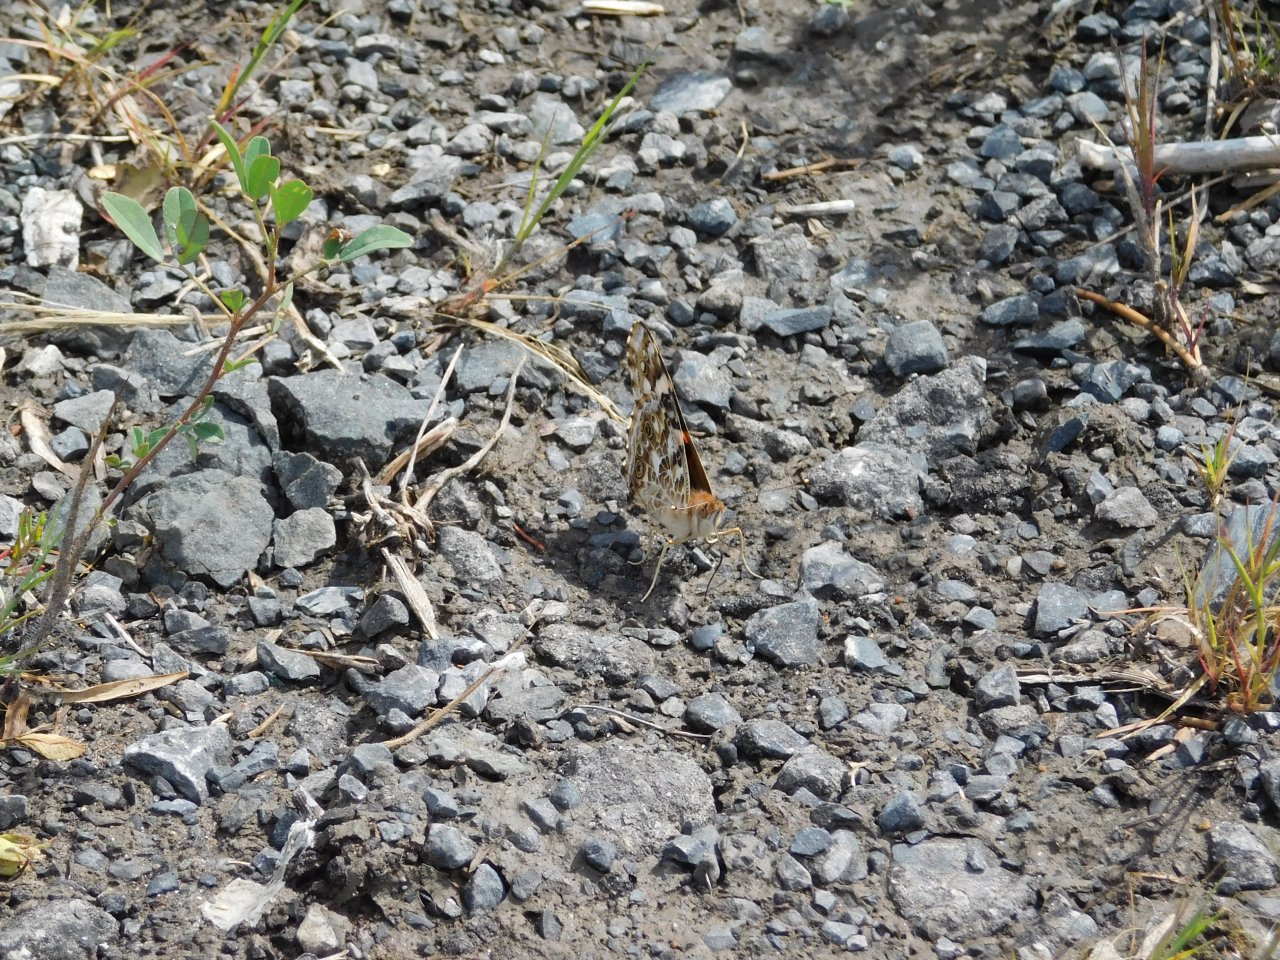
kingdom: Animalia
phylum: Arthropoda
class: Insecta
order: Lepidoptera
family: Nymphalidae
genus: Vanessa
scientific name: Vanessa cardui
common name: Painted Lady
